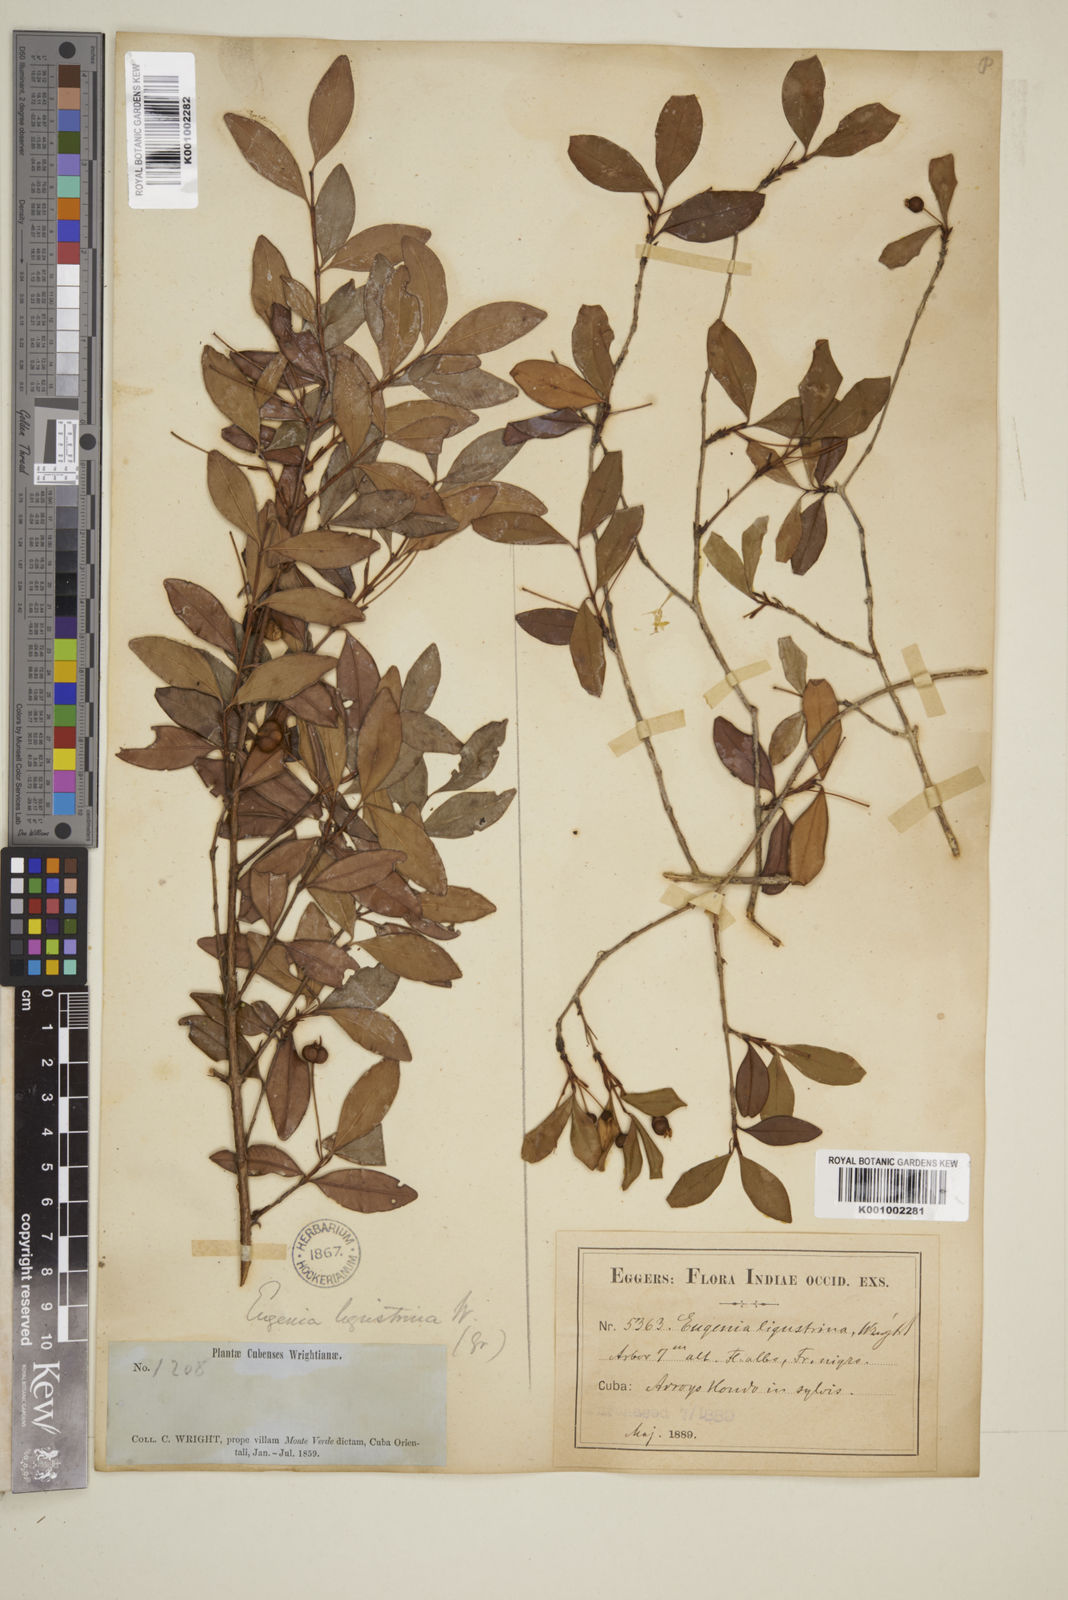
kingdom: Plantae
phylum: Tracheophyta
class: Magnoliopsida
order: Myrtales
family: Myrtaceae
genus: Eugenia
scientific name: Eugenia ligustrina
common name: Privet stopper
